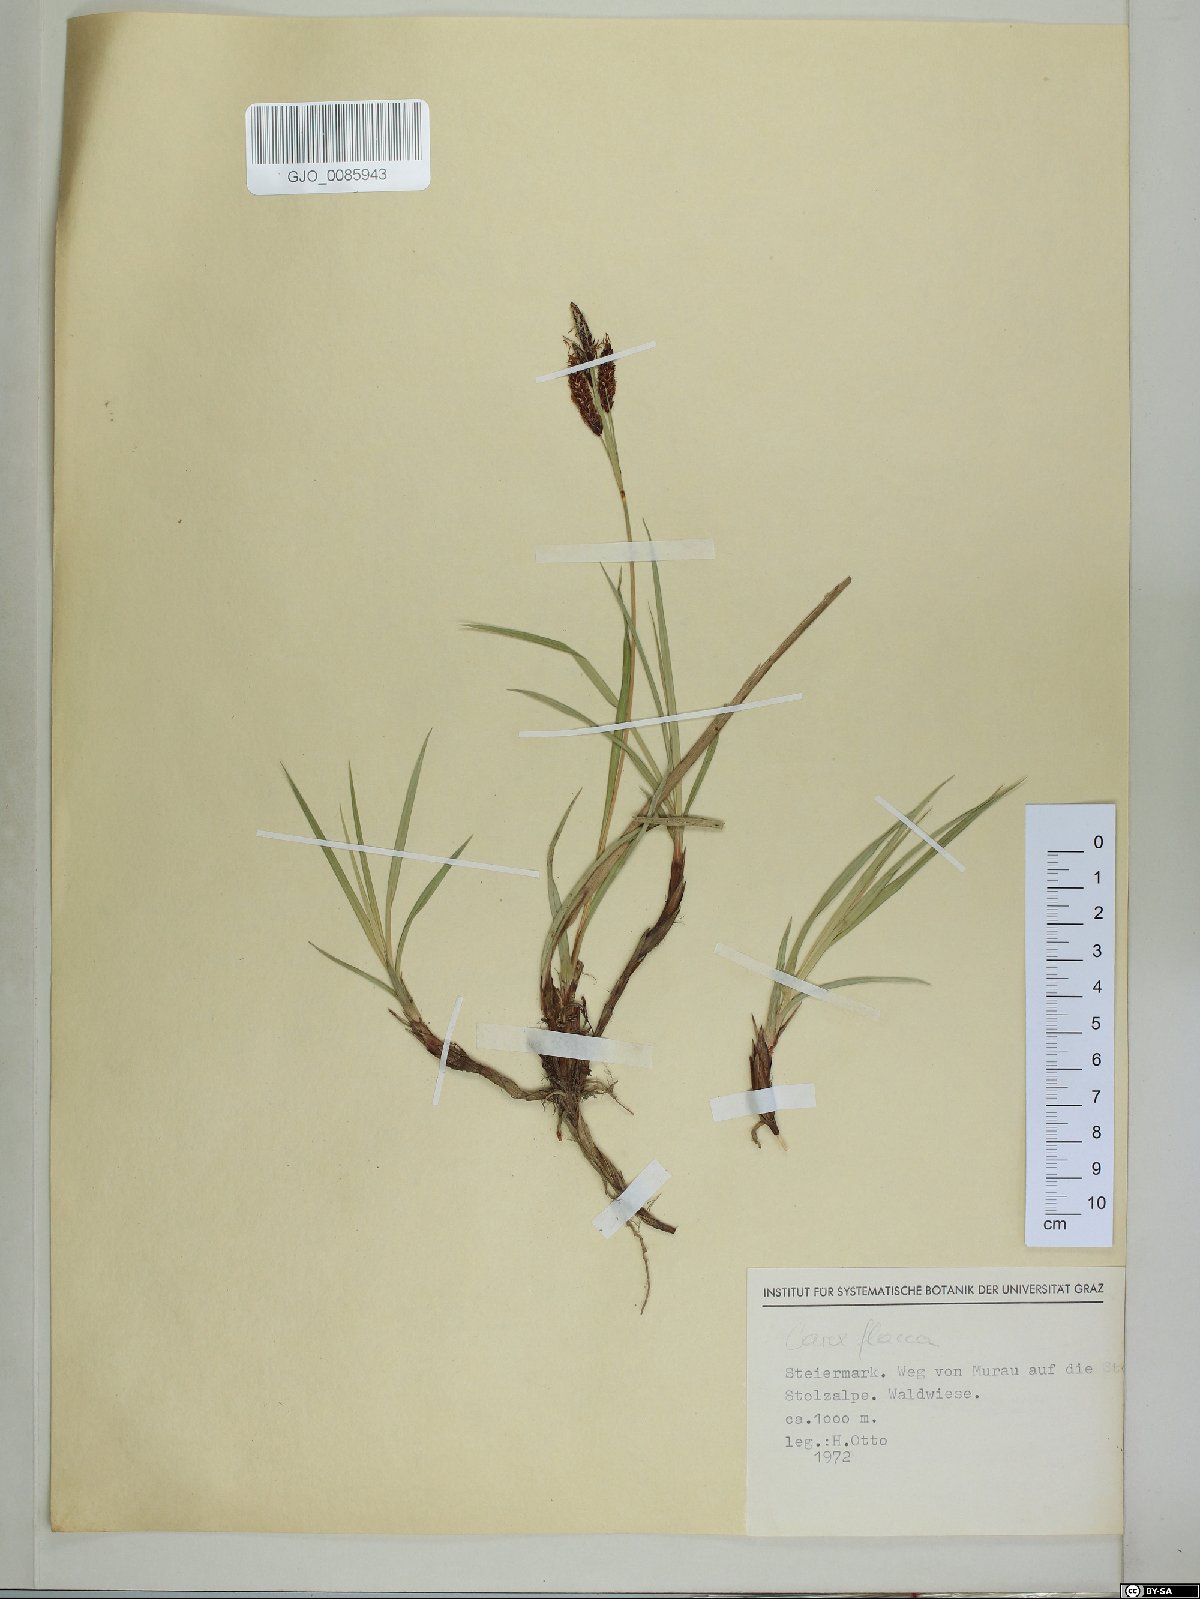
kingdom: Plantae
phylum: Tracheophyta
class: Liliopsida
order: Poales
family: Cyperaceae
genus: Carex
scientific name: Carex flacca
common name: Glaucous sedge
